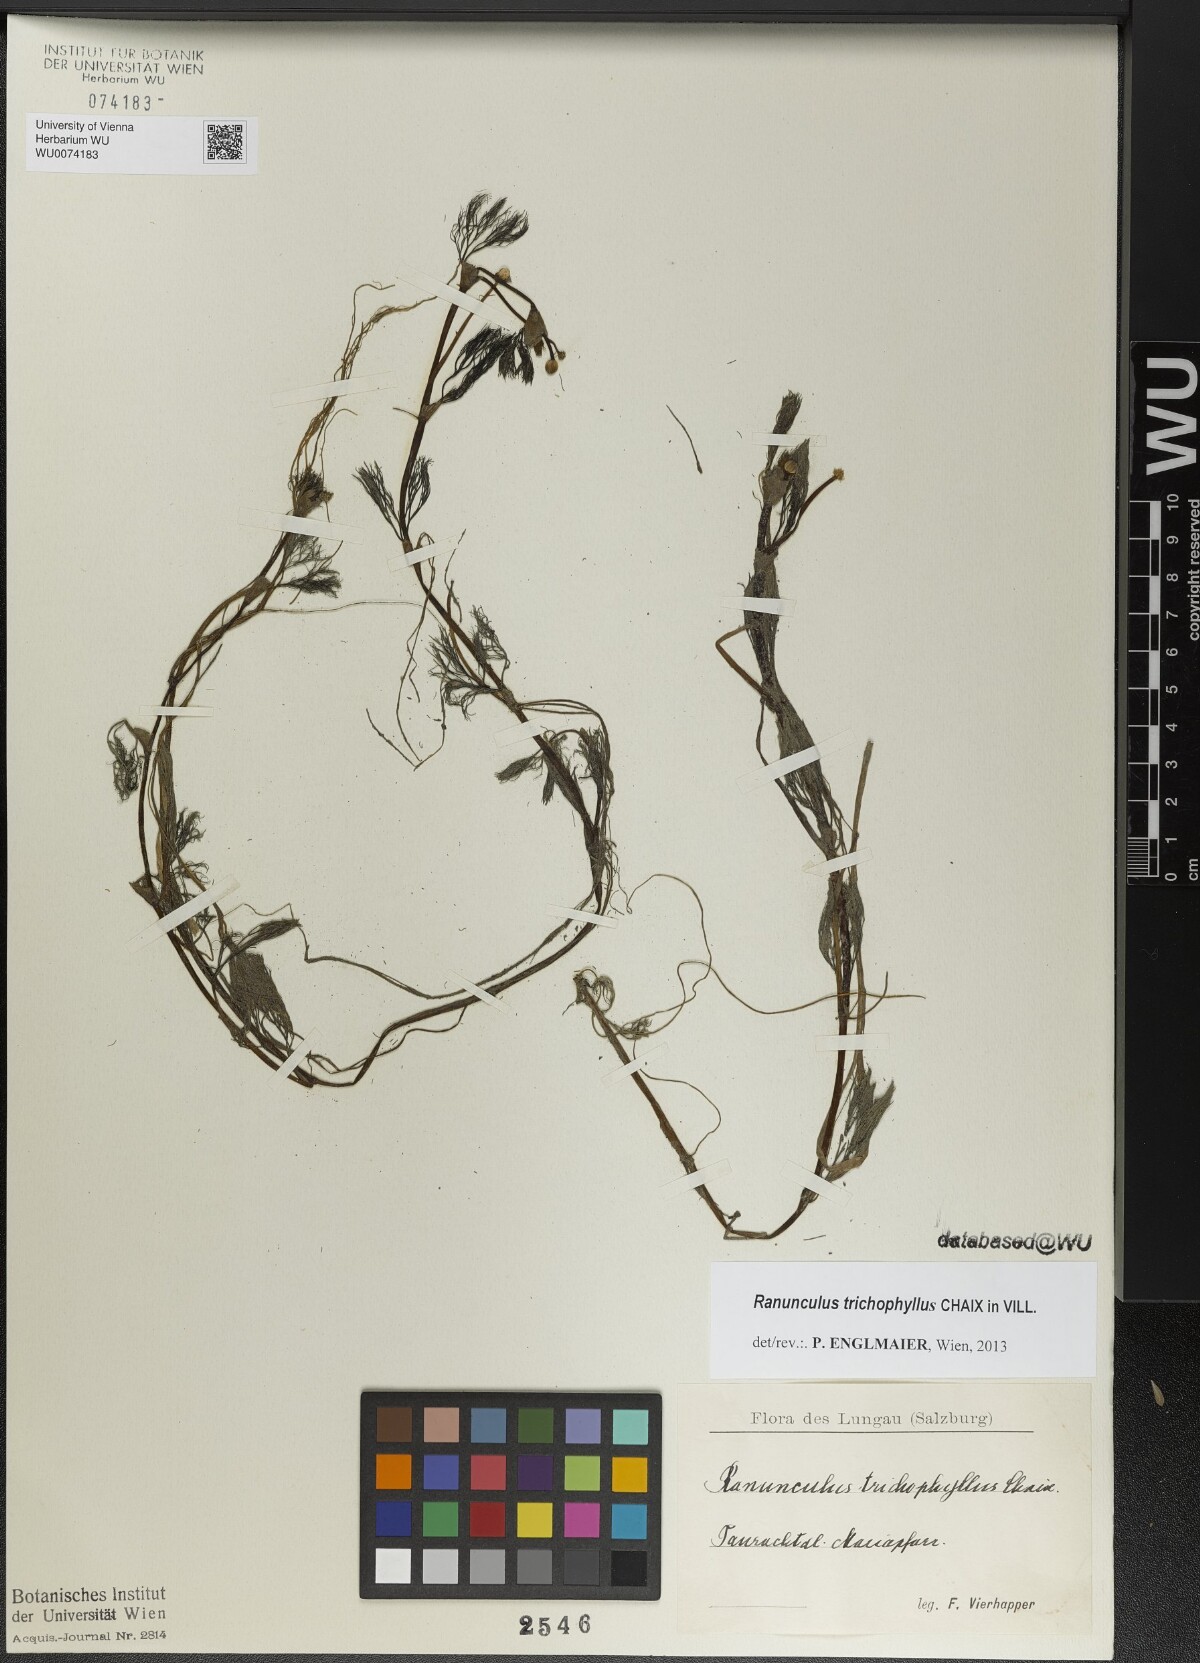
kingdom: Plantae
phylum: Tracheophyta
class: Magnoliopsida
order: Ranunculales
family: Ranunculaceae
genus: Ranunculus
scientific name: Ranunculus trichophyllus
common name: Thread-leaved water-crowfoot
